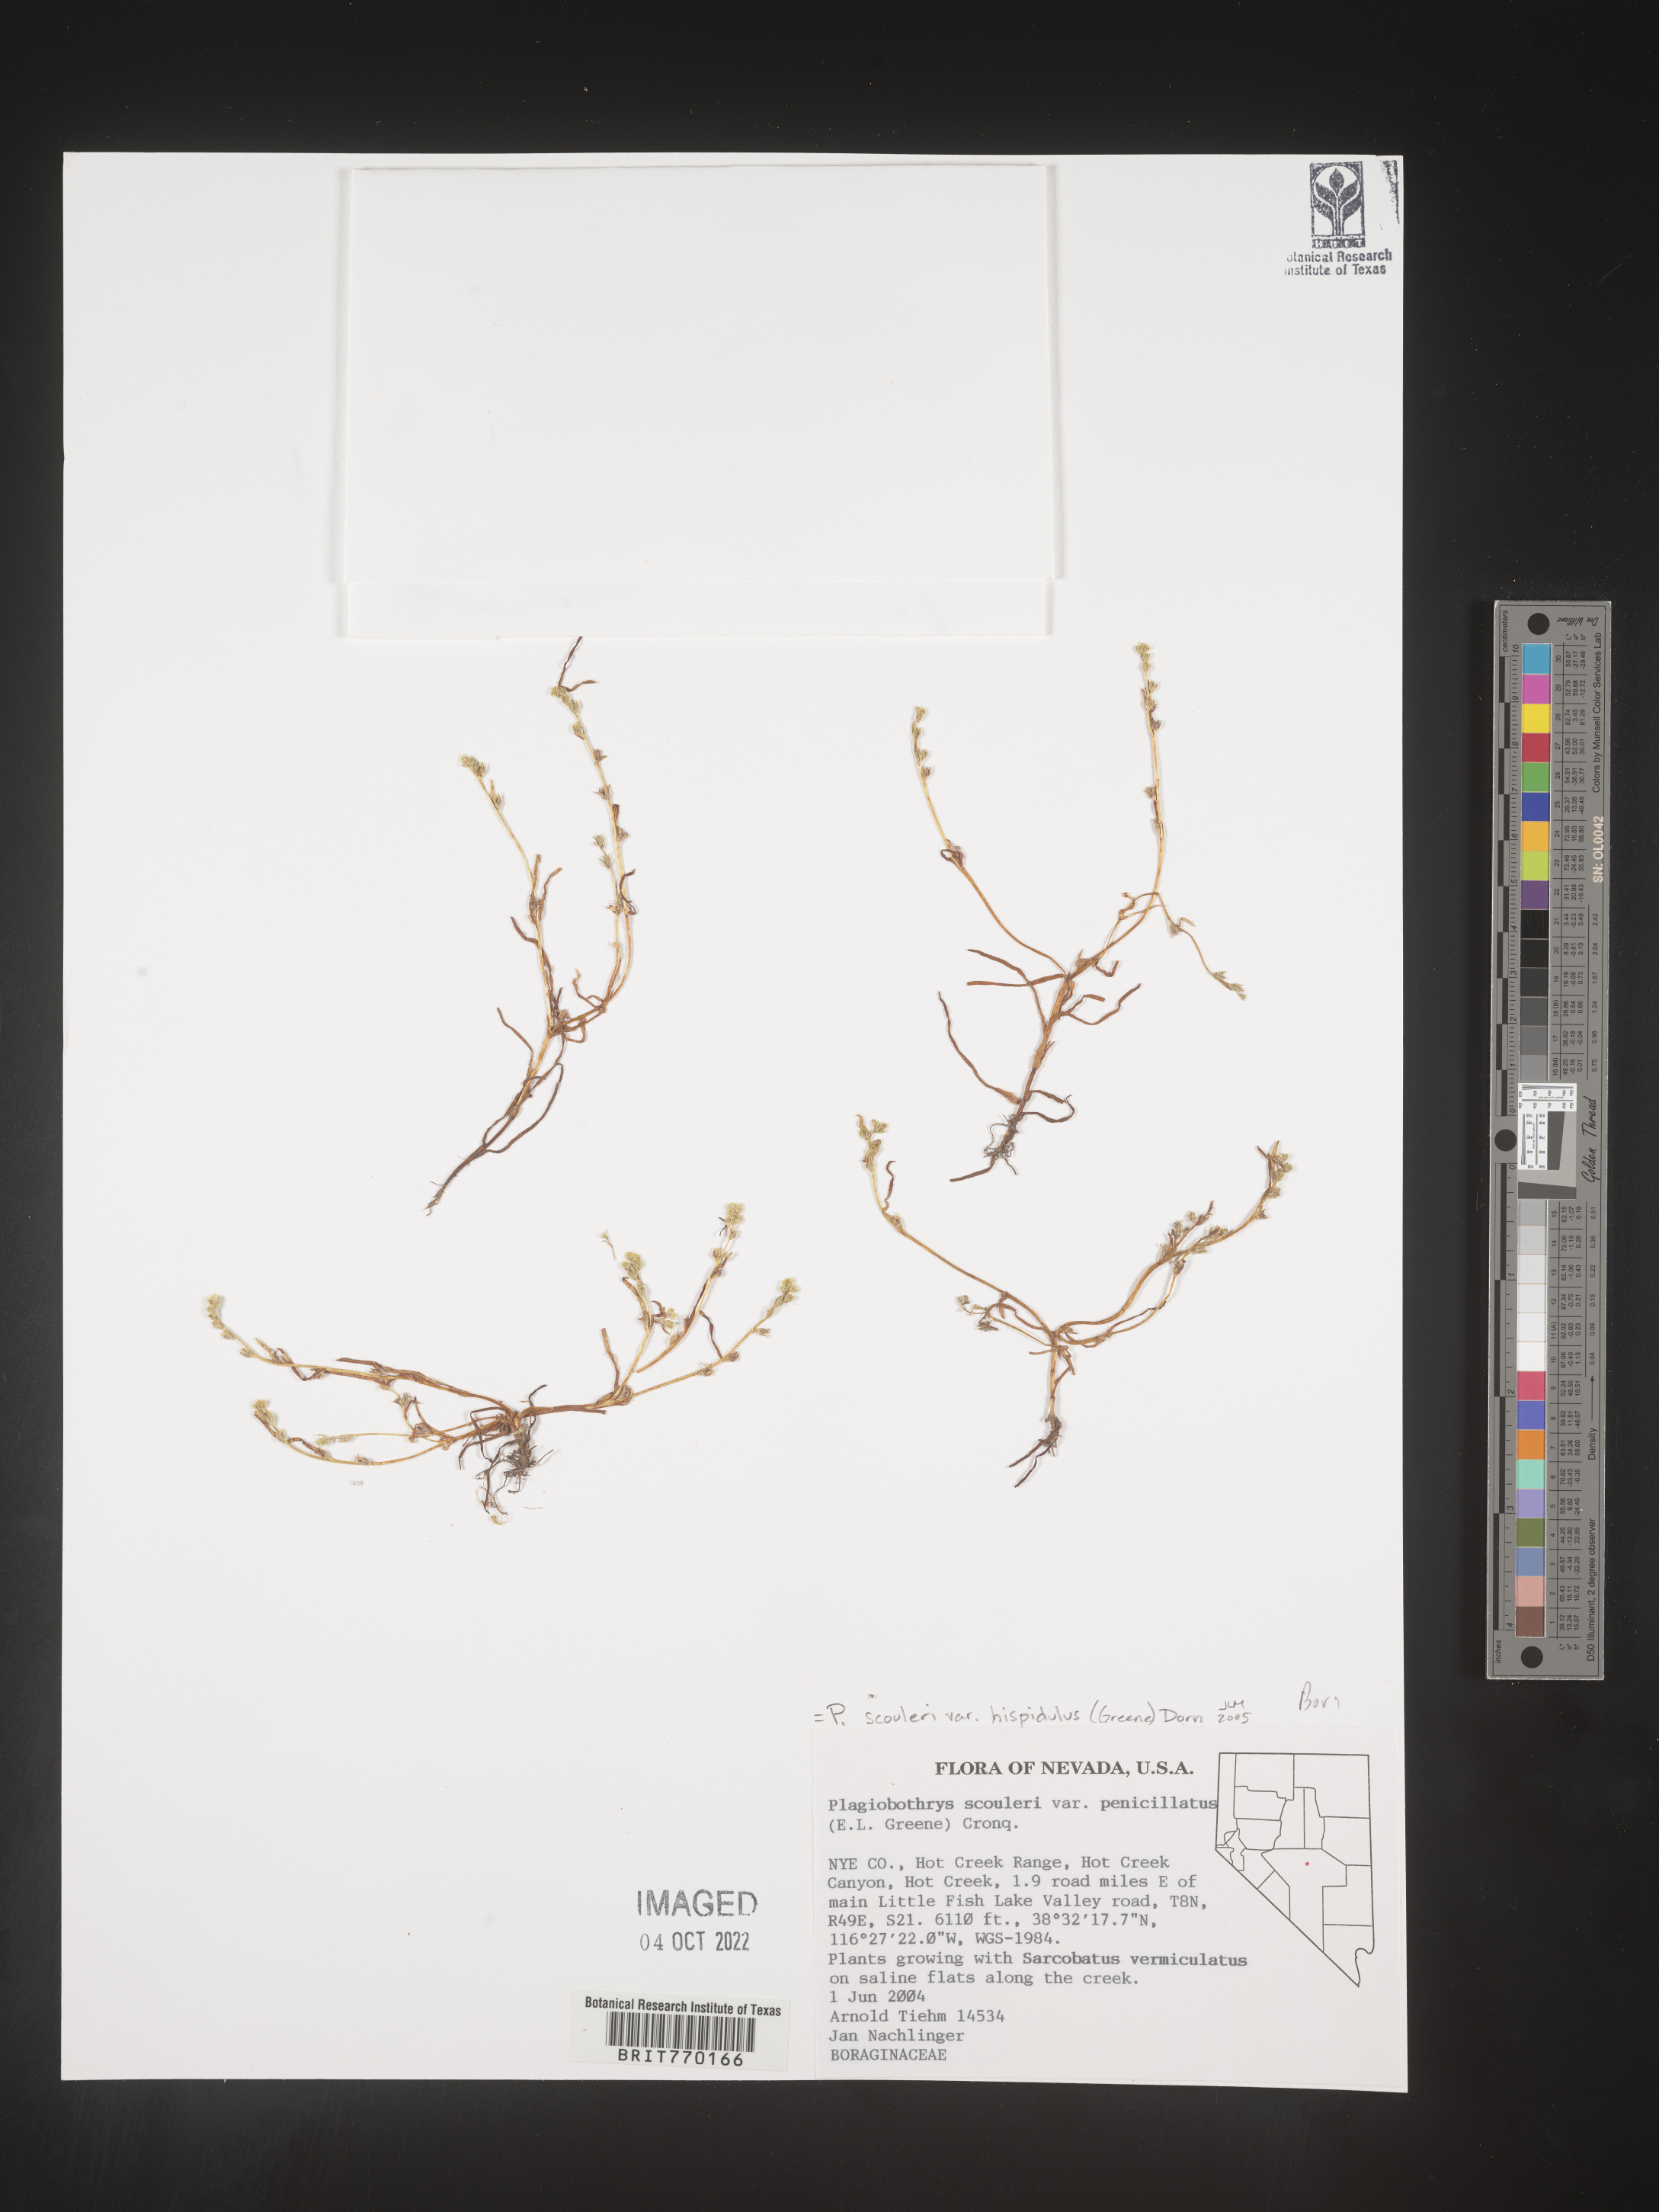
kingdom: Plantae
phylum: Tracheophyta
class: Magnoliopsida
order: Boraginales
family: Boraginaceae
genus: Plagiobothrys
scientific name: Plagiobothrys
